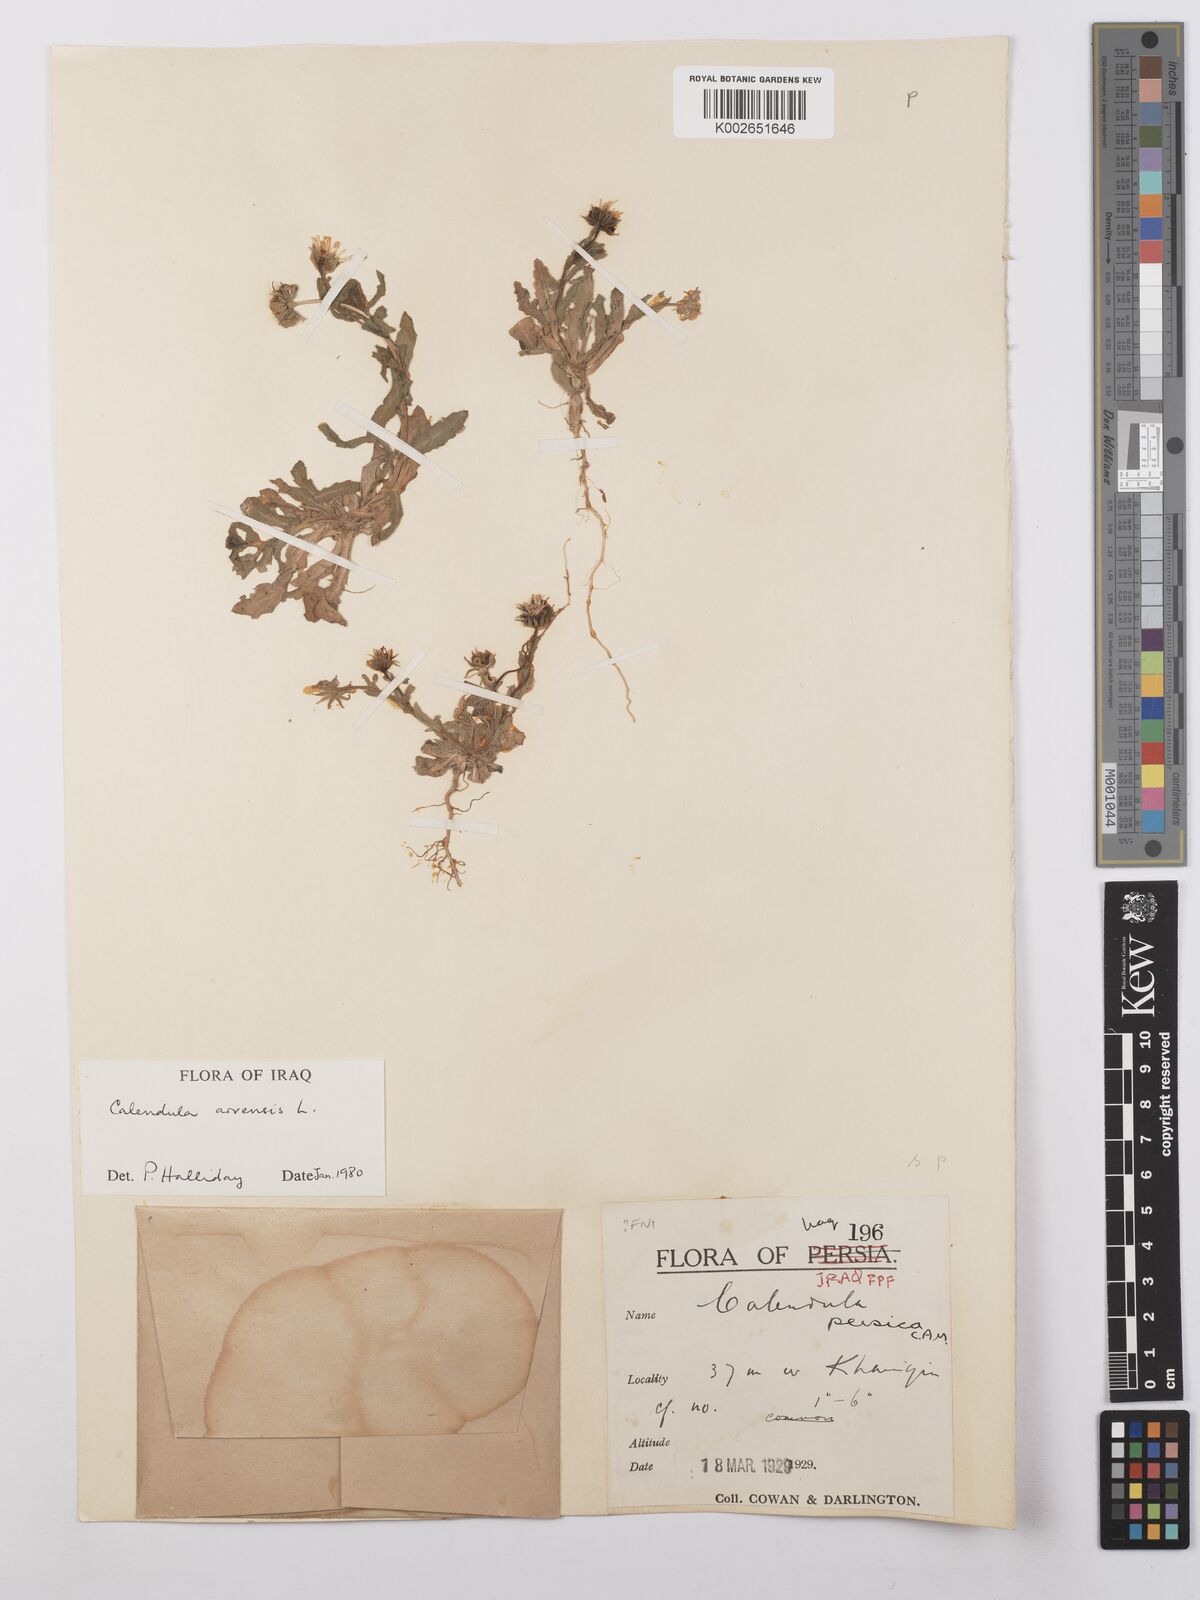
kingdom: Plantae
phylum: Tracheophyta
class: Magnoliopsida
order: Asterales
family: Asteraceae
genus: Calendula
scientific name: Calendula arvensis
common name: Field marigold
